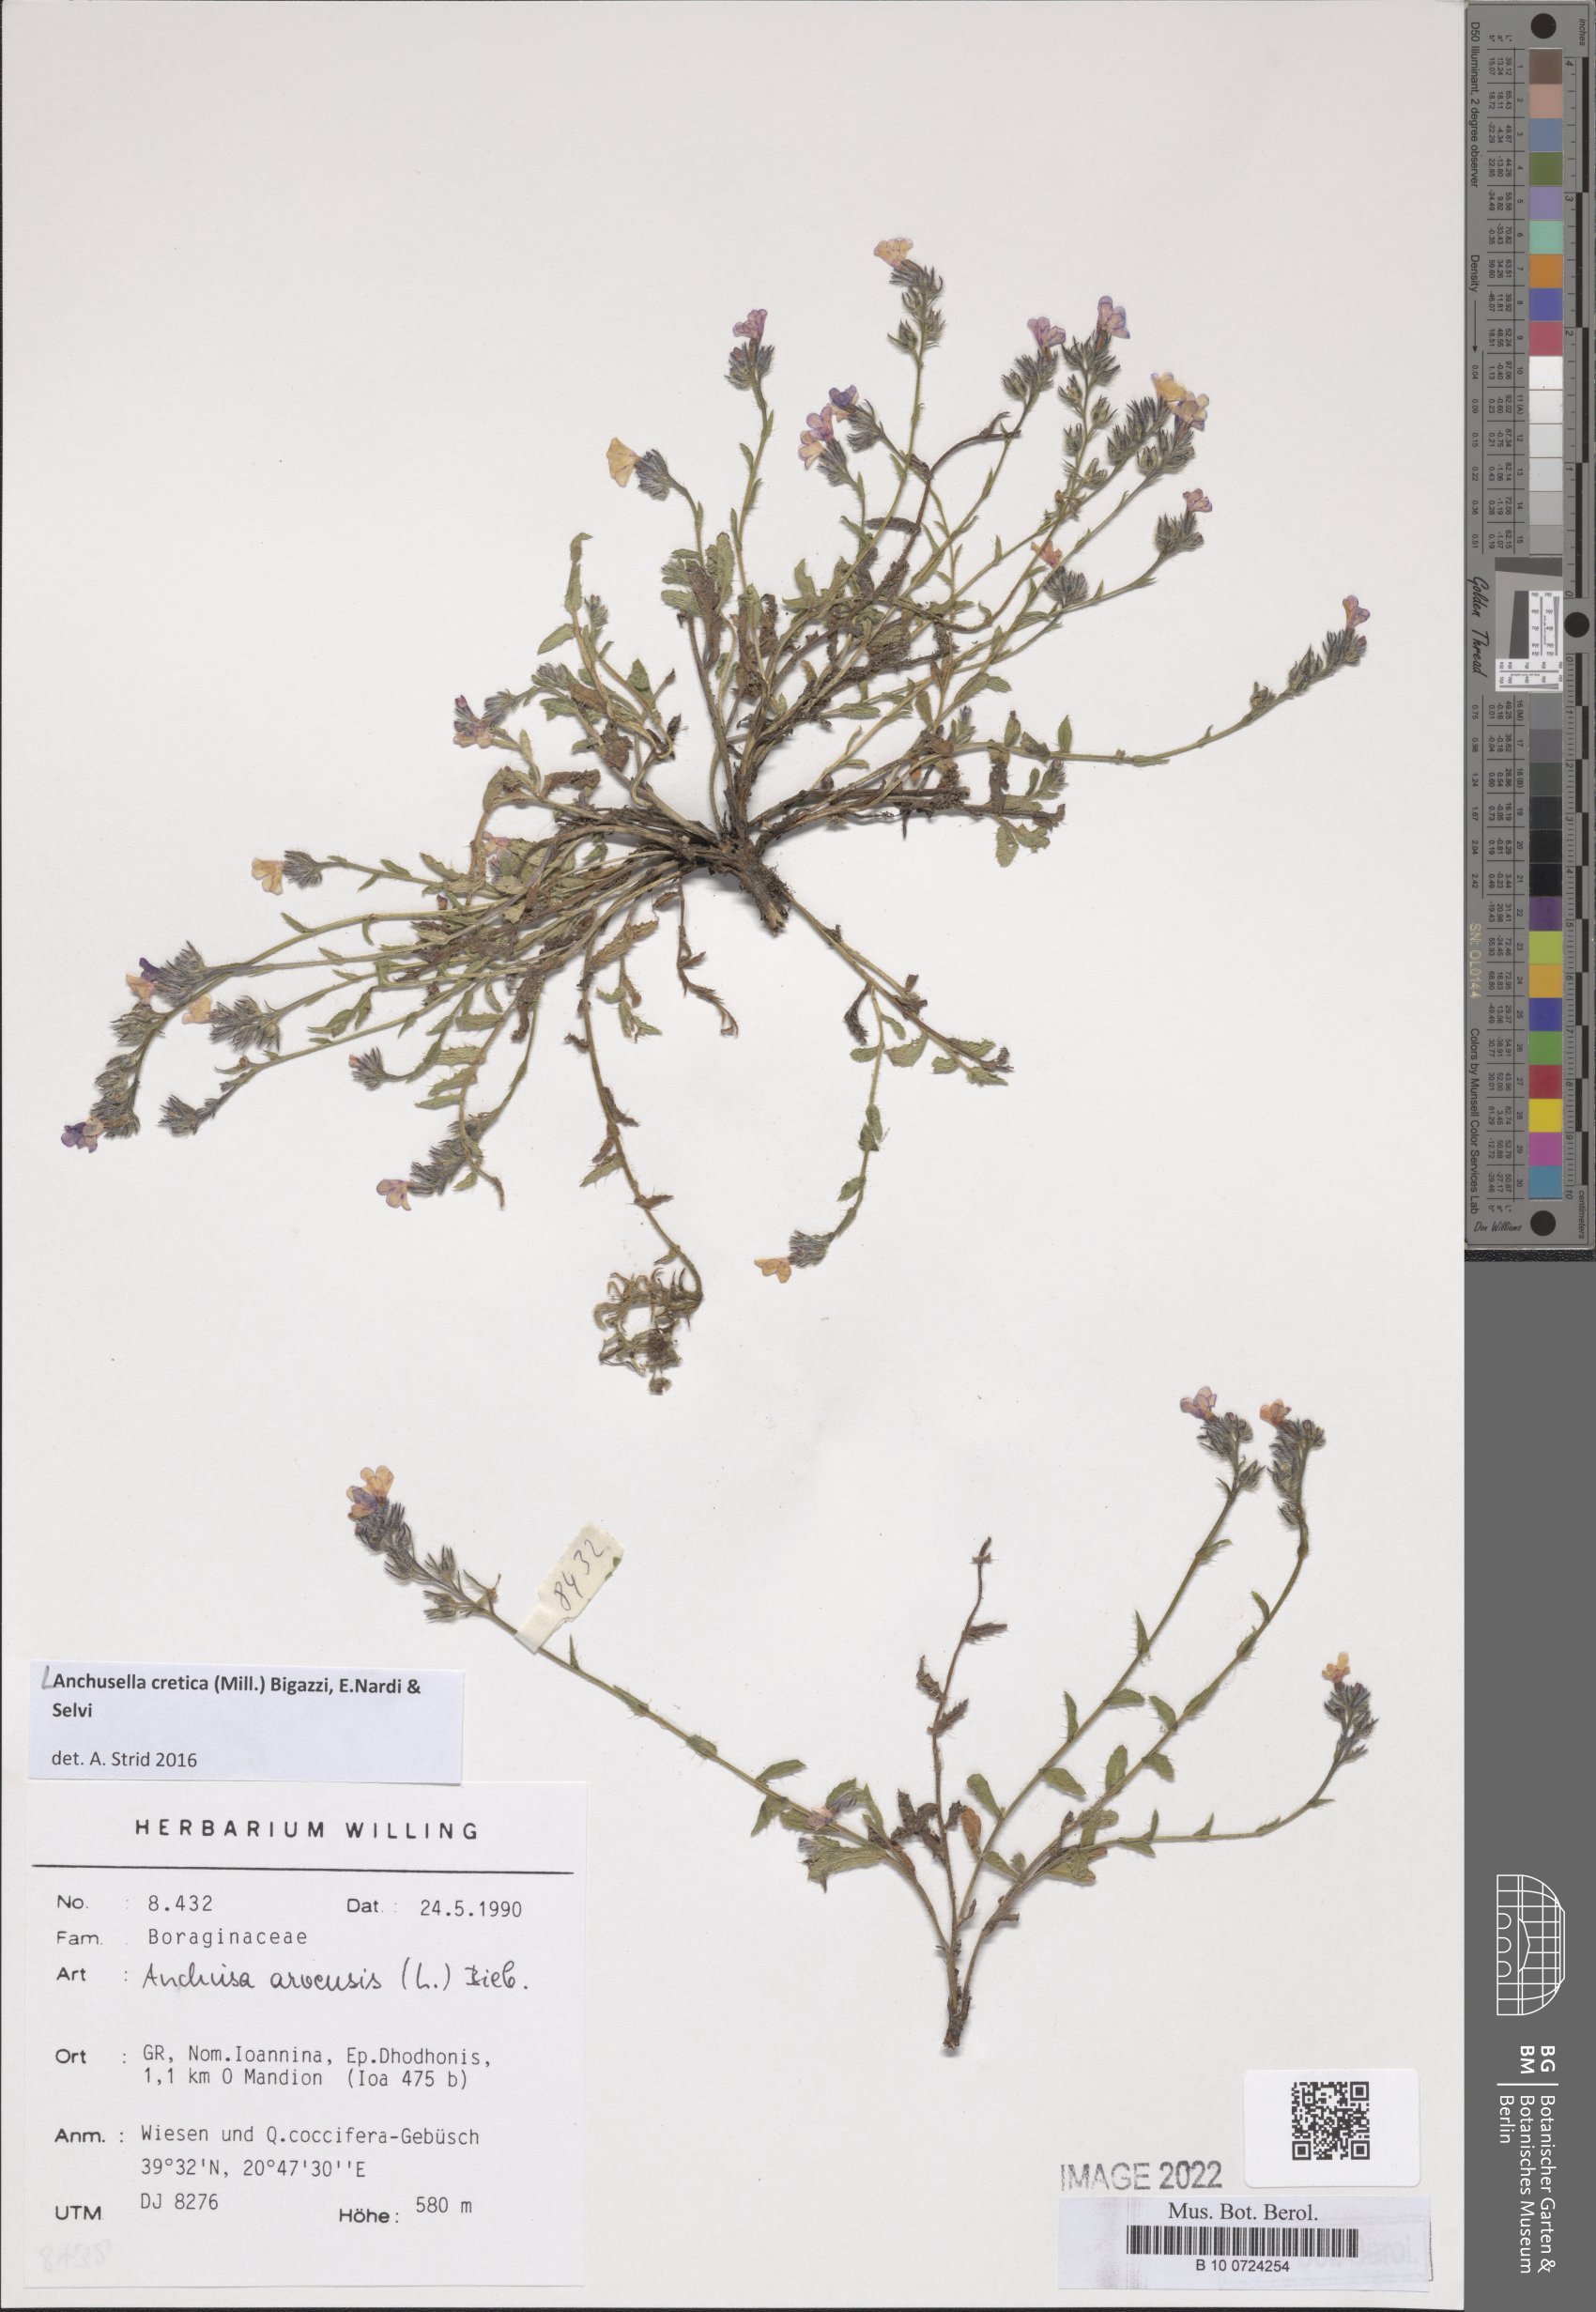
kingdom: Plantae
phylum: Tracheophyta
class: Magnoliopsida
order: Boraginales
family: Boraginaceae
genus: Anchusella
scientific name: Anchusella cretica
